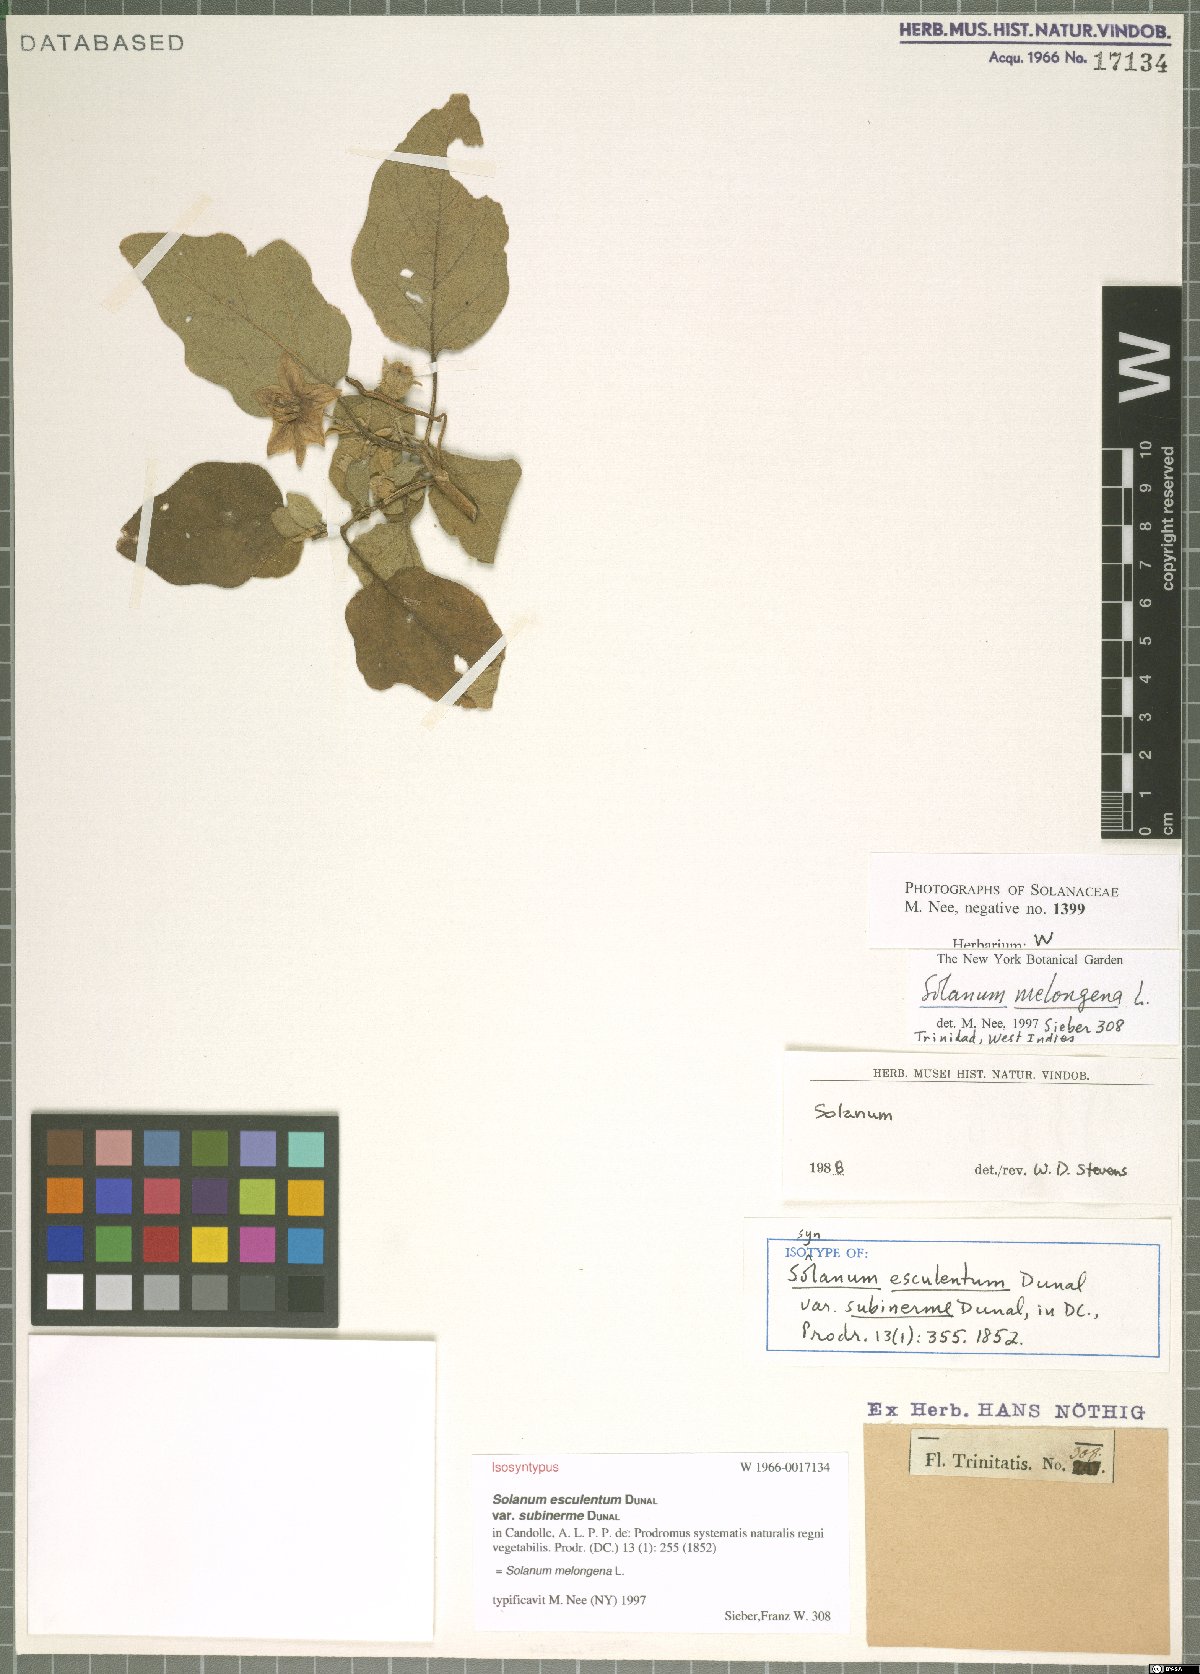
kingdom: Plantae
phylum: Tracheophyta
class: Magnoliopsida
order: Solanales
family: Solanaceae
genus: Solanum
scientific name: Solanum melongena
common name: Eggplant
